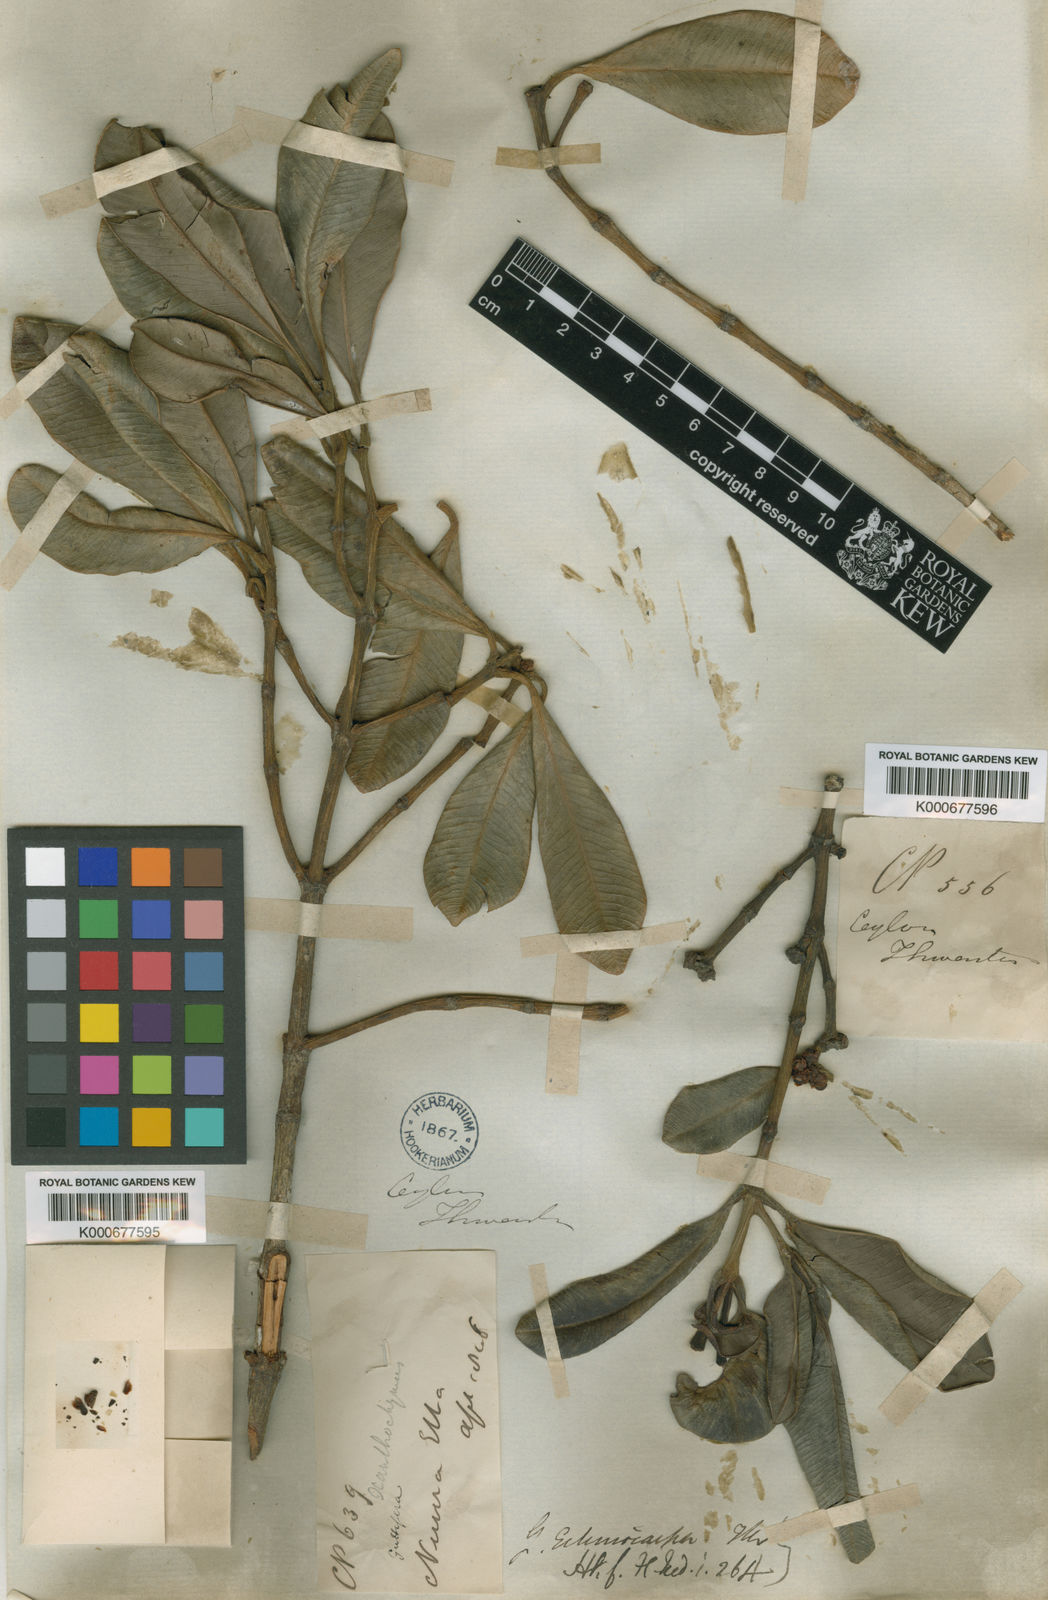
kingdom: Plantae
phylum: Tracheophyta
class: Magnoliopsida
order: Malpighiales
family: Clusiaceae
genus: Garcinia
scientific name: Garcinia echinocarpa
